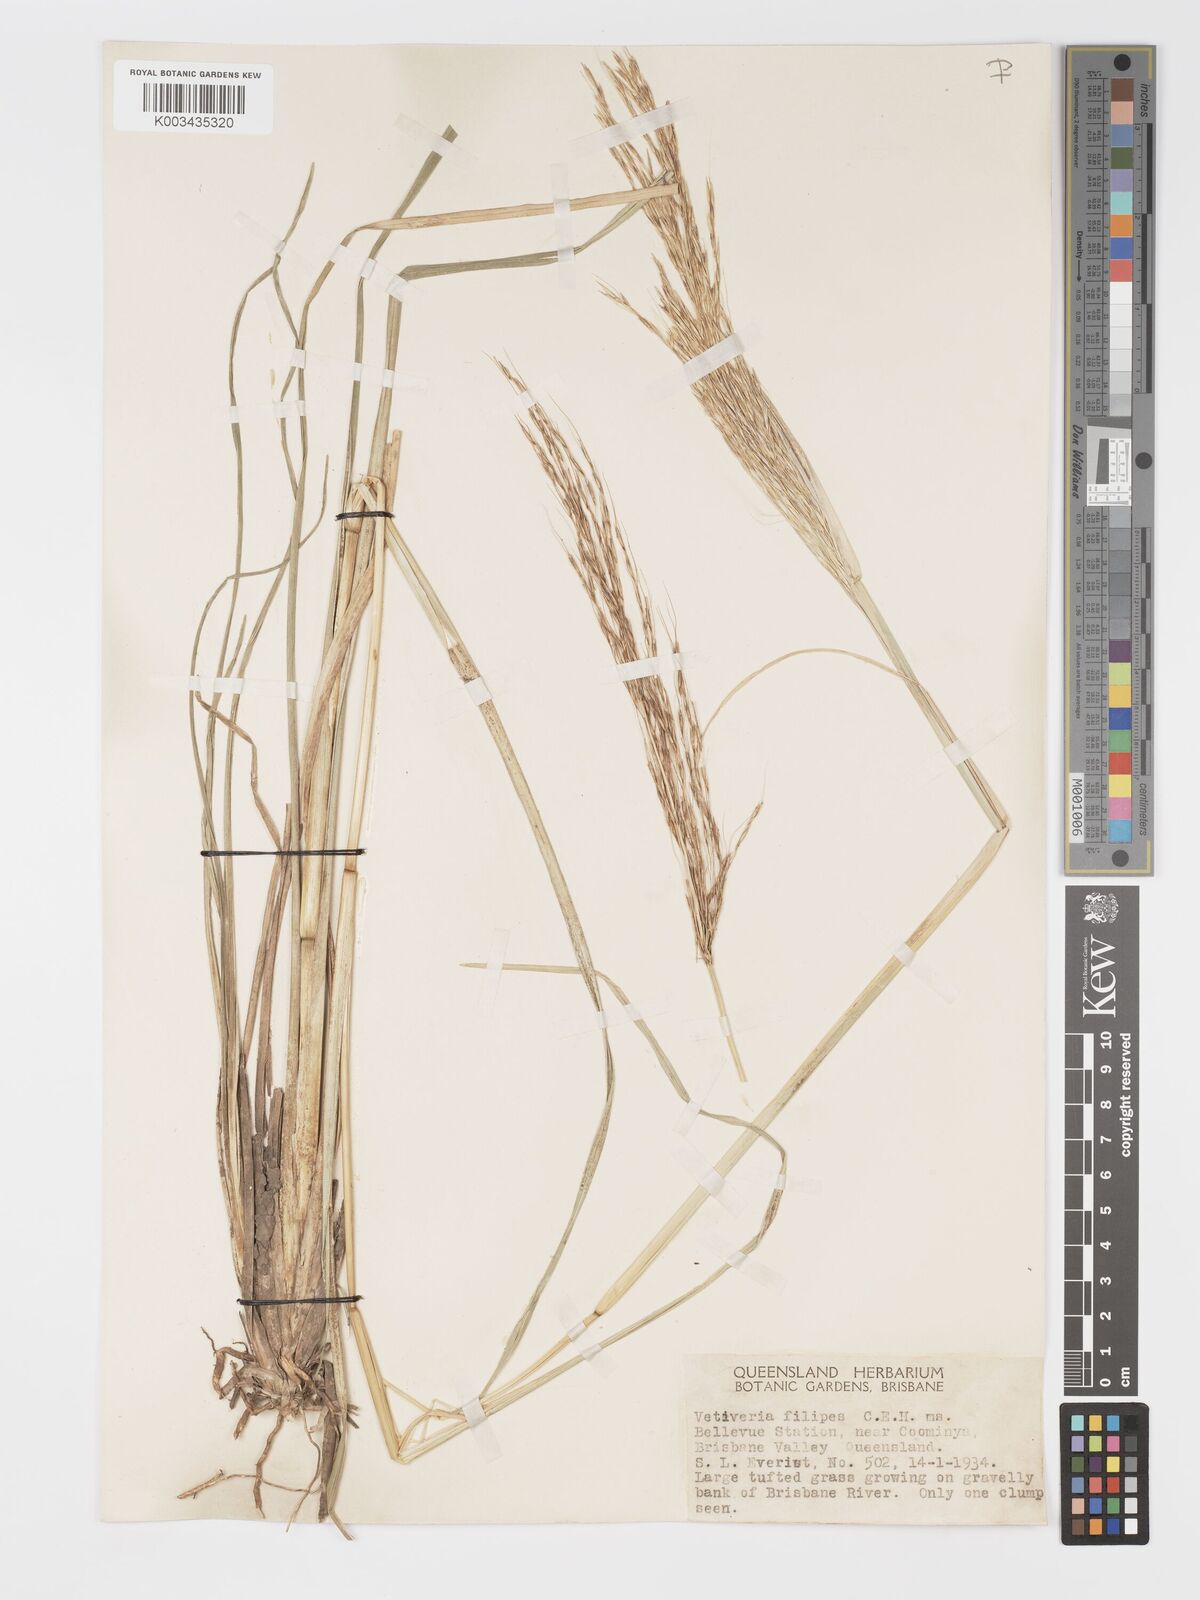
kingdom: Plantae
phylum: Tracheophyta
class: Liliopsida
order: Poales
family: Poaceae
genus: Chrysopogon
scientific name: Chrysopogon filipes
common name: Australian vetiver
